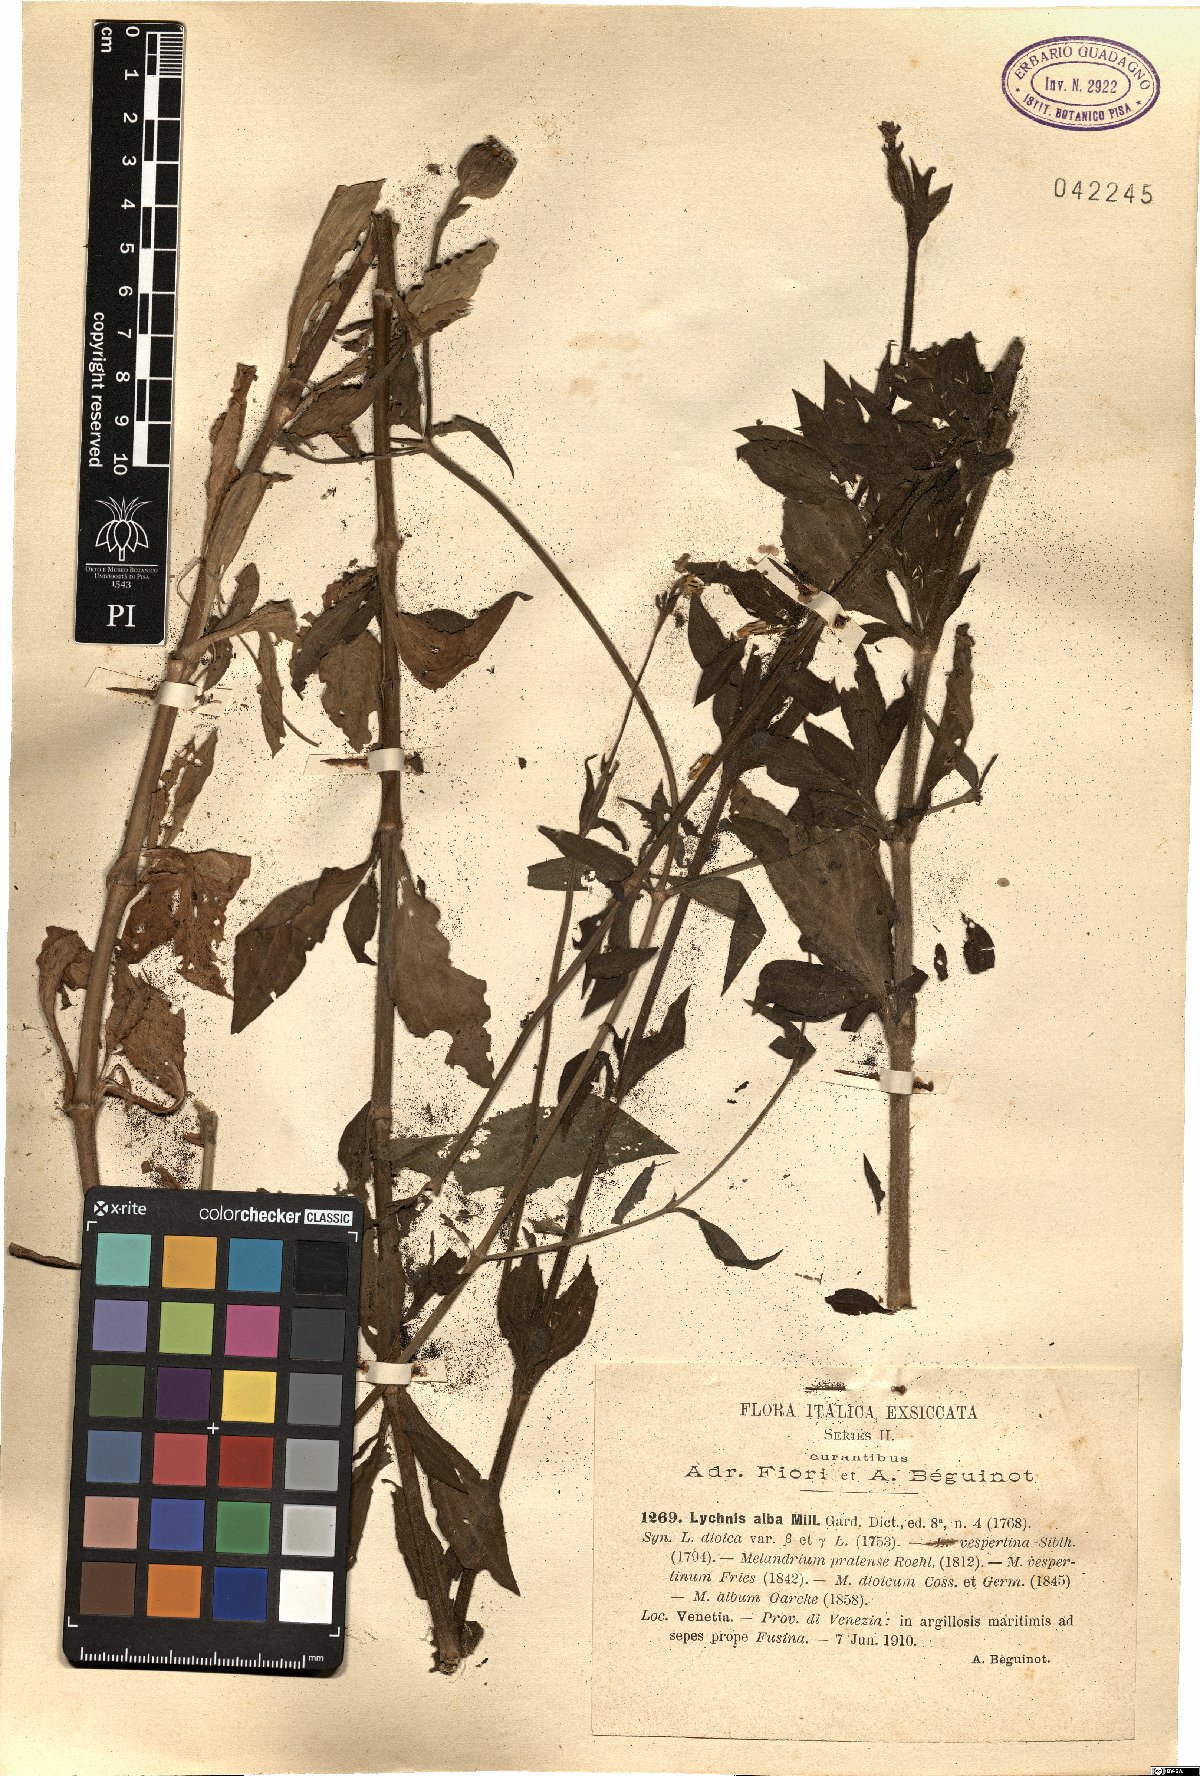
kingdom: Plantae
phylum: Tracheophyta
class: Magnoliopsida
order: Caryophyllales
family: Caryophyllaceae
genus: Silene
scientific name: Silene latifolia
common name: White campion
